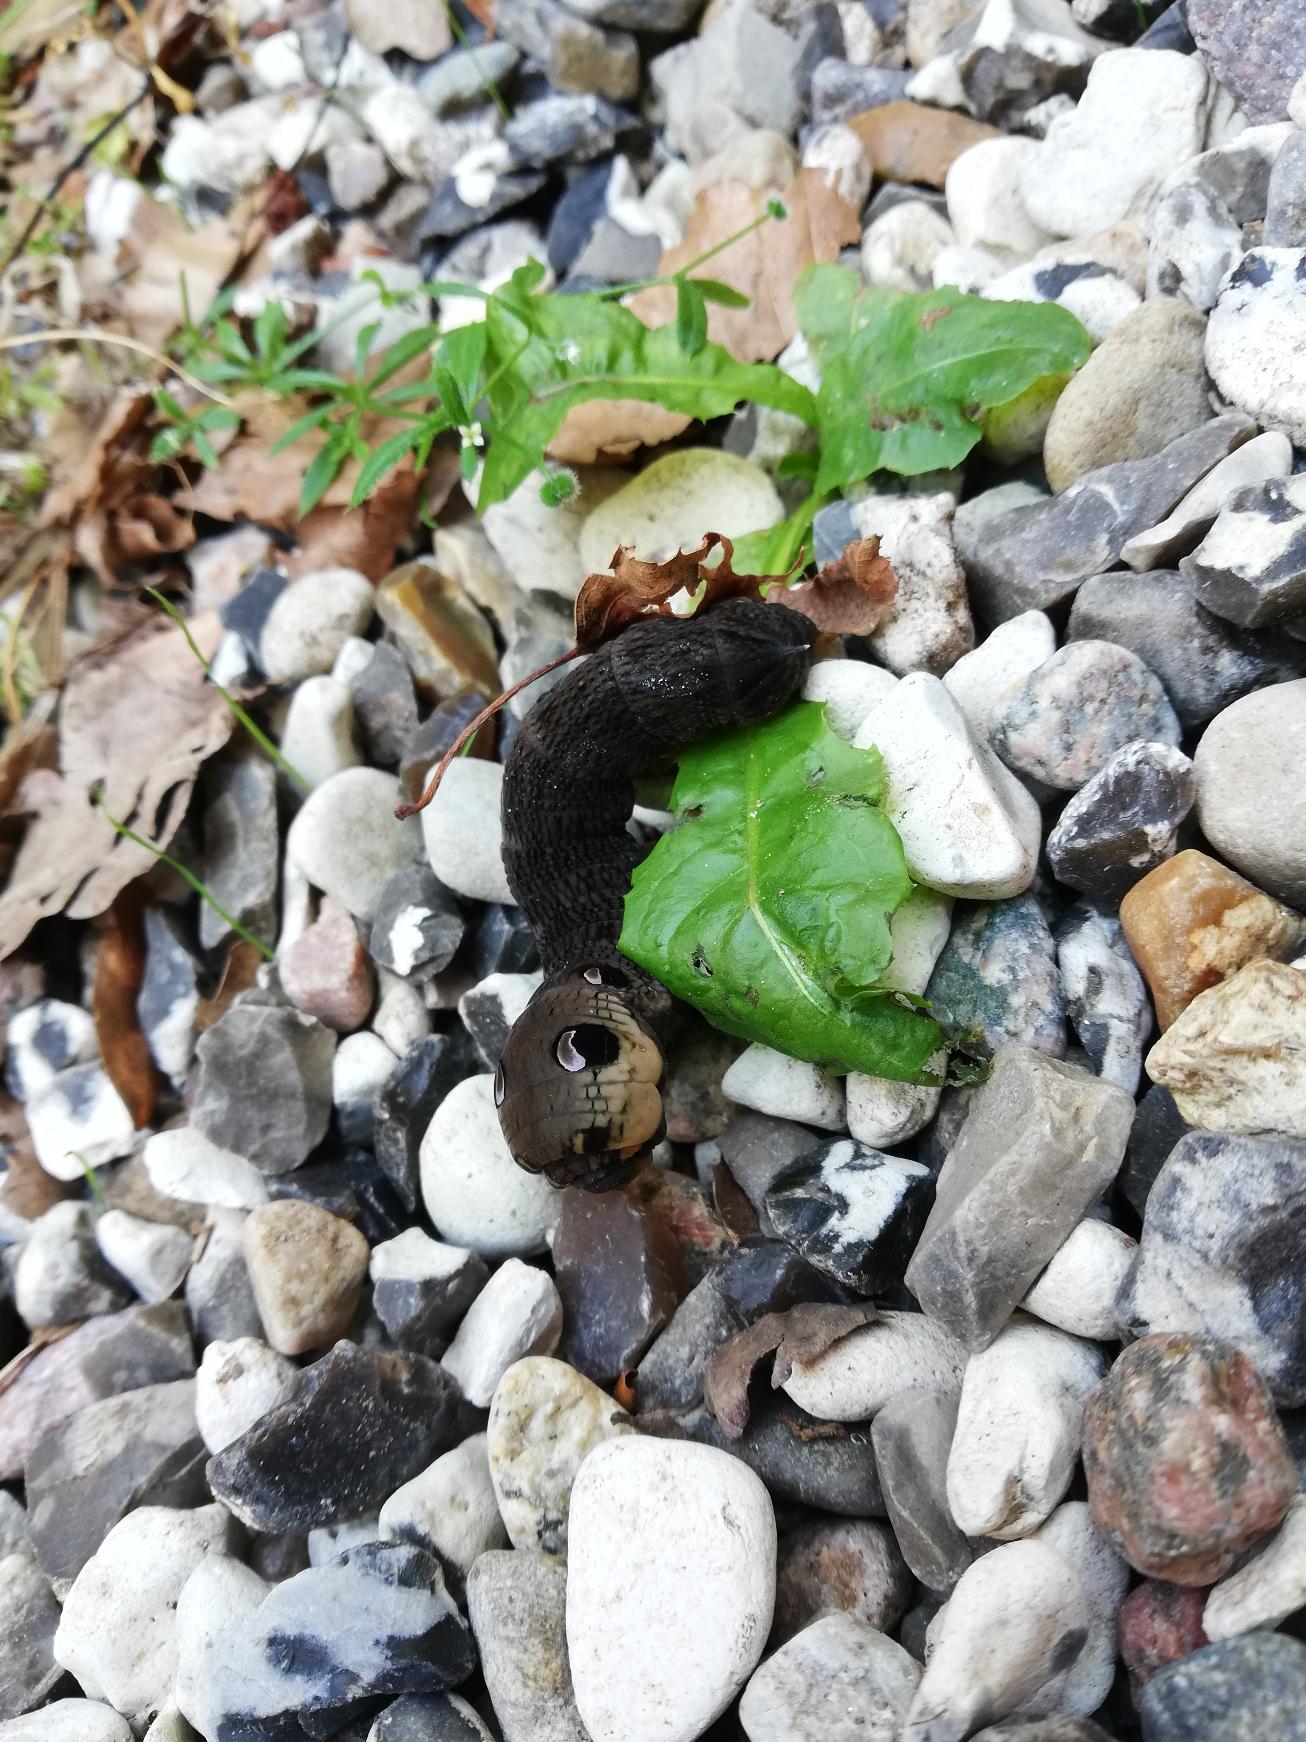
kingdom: Animalia
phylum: Arthropoda
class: Insecta
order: Lepidoptera
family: Sphingidae
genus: Deilephila
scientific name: Deilephila elpenor
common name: Dueurtsværmer
